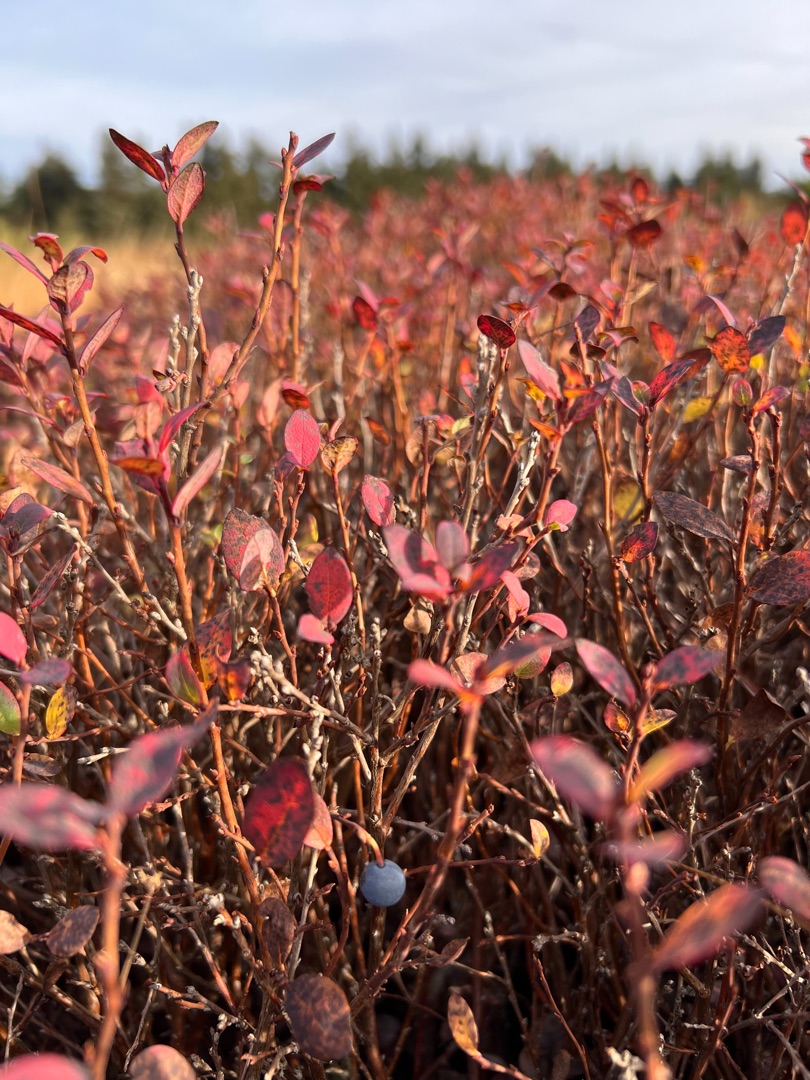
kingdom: Plantae
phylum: Tracheophyta
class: Magnoliopsida
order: Ericales
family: Ericaceae
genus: Vaccinium
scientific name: Vaccinium uliginosum
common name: Mose-bølle
